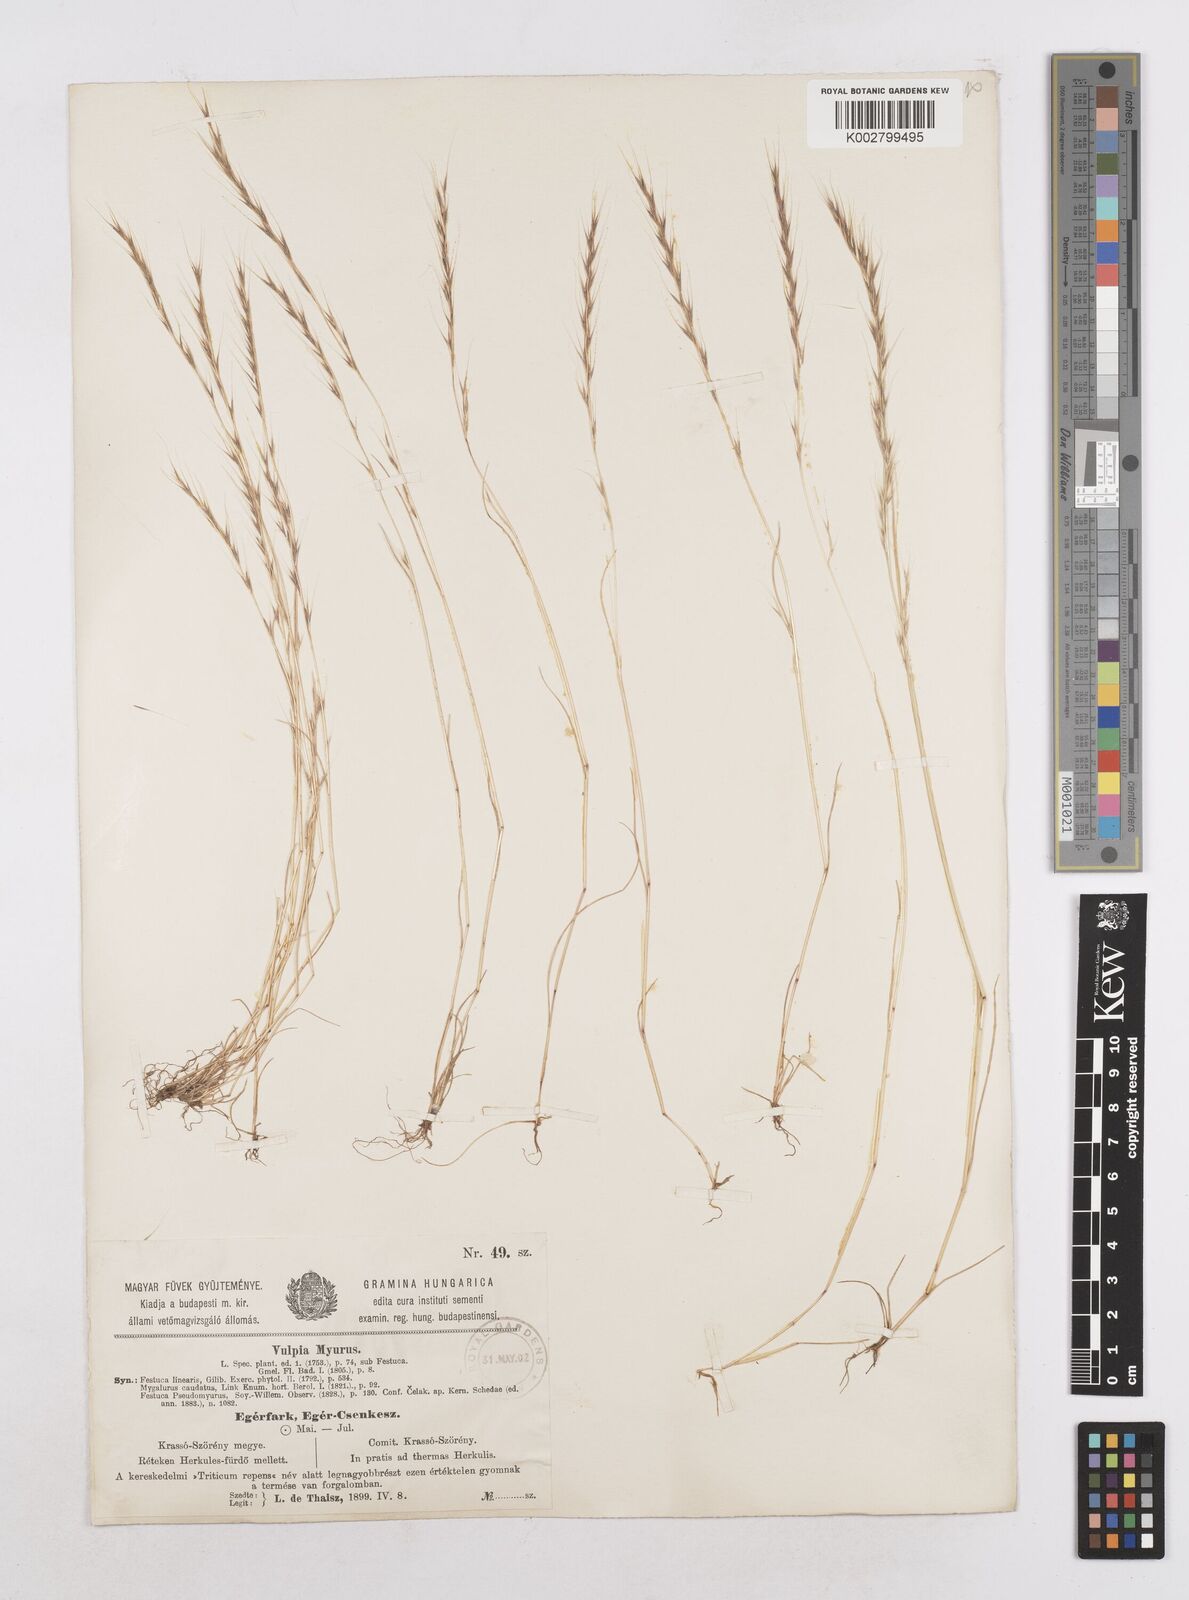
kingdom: Plantae
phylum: Tracheophyta
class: Liliopsida
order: Poales
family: Poaceae
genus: Festuca
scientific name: Festuca myuros
